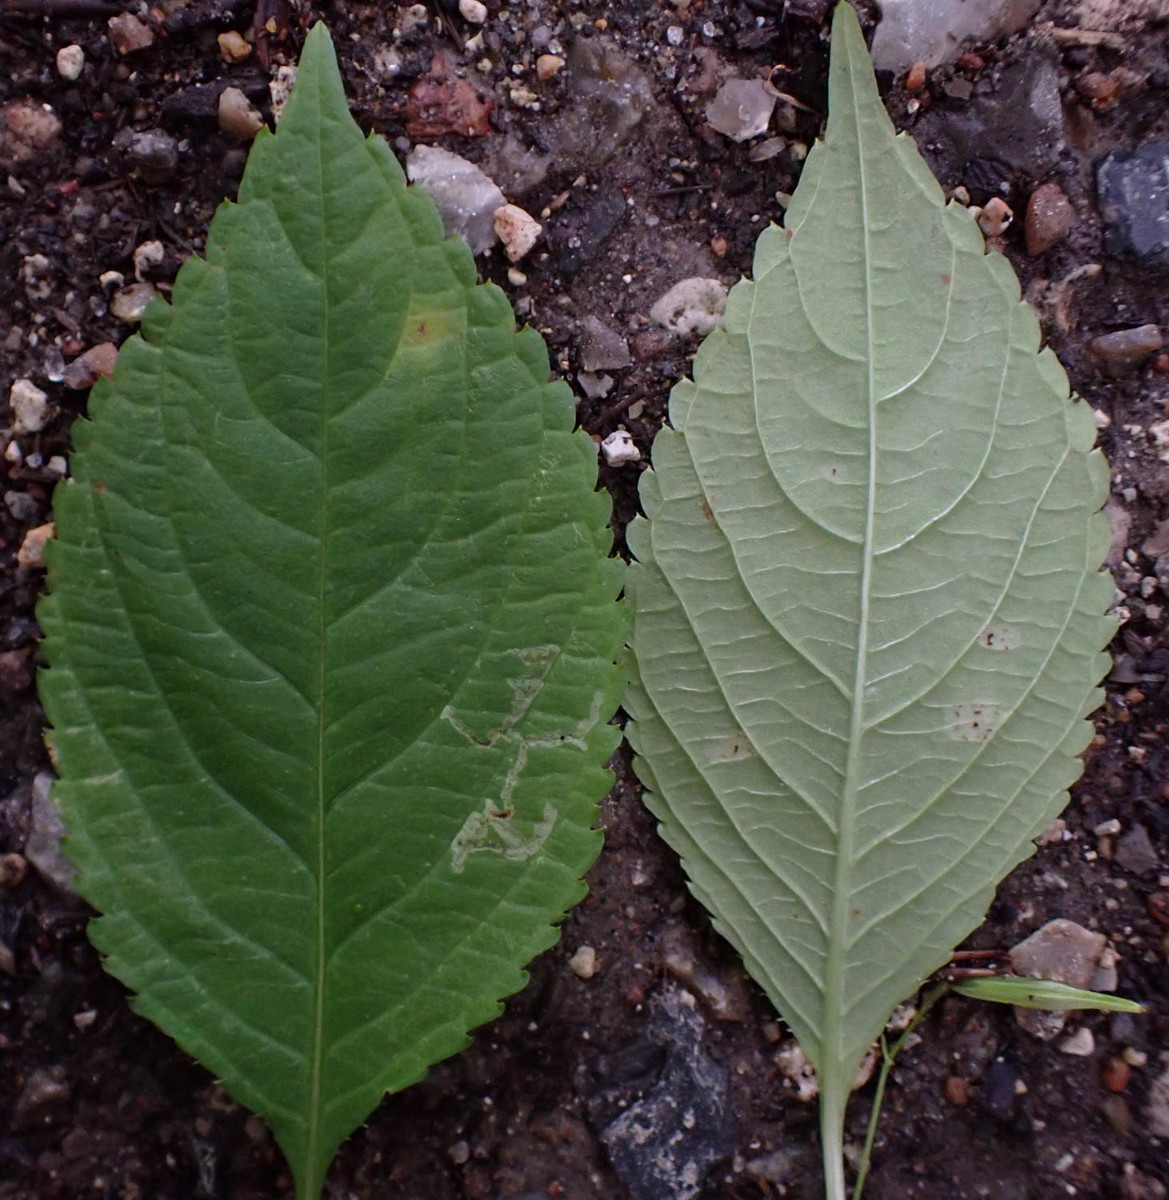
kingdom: Fungi
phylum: Basidiomycota
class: Pucciniomycetes
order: Pucciniales
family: Pucciniaceae
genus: Puccinia
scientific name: Puccinia komarovii
